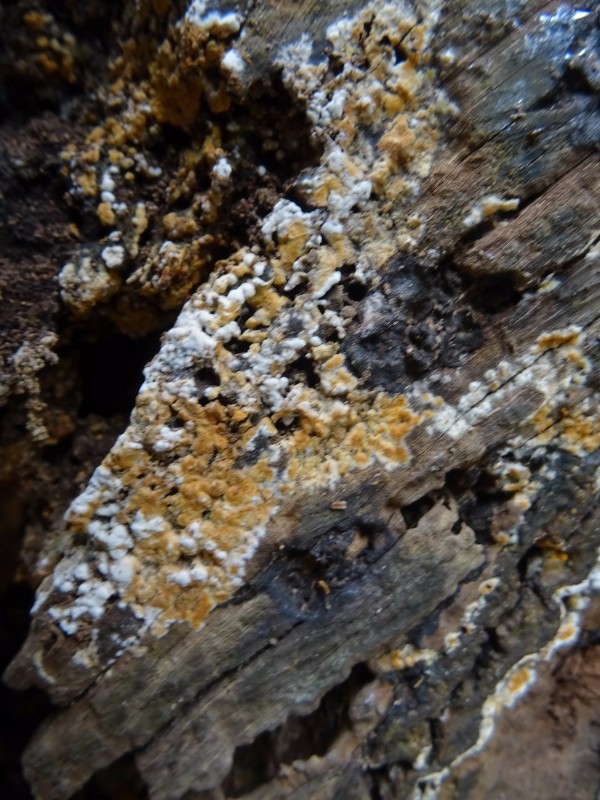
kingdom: Fungi
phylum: Basidiomycota
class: Agaricomycetes
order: Cantharellales
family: Botryobasidiaceae
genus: Botryobasidium
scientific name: Botryobasidium aureum
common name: gylden spindhinde
